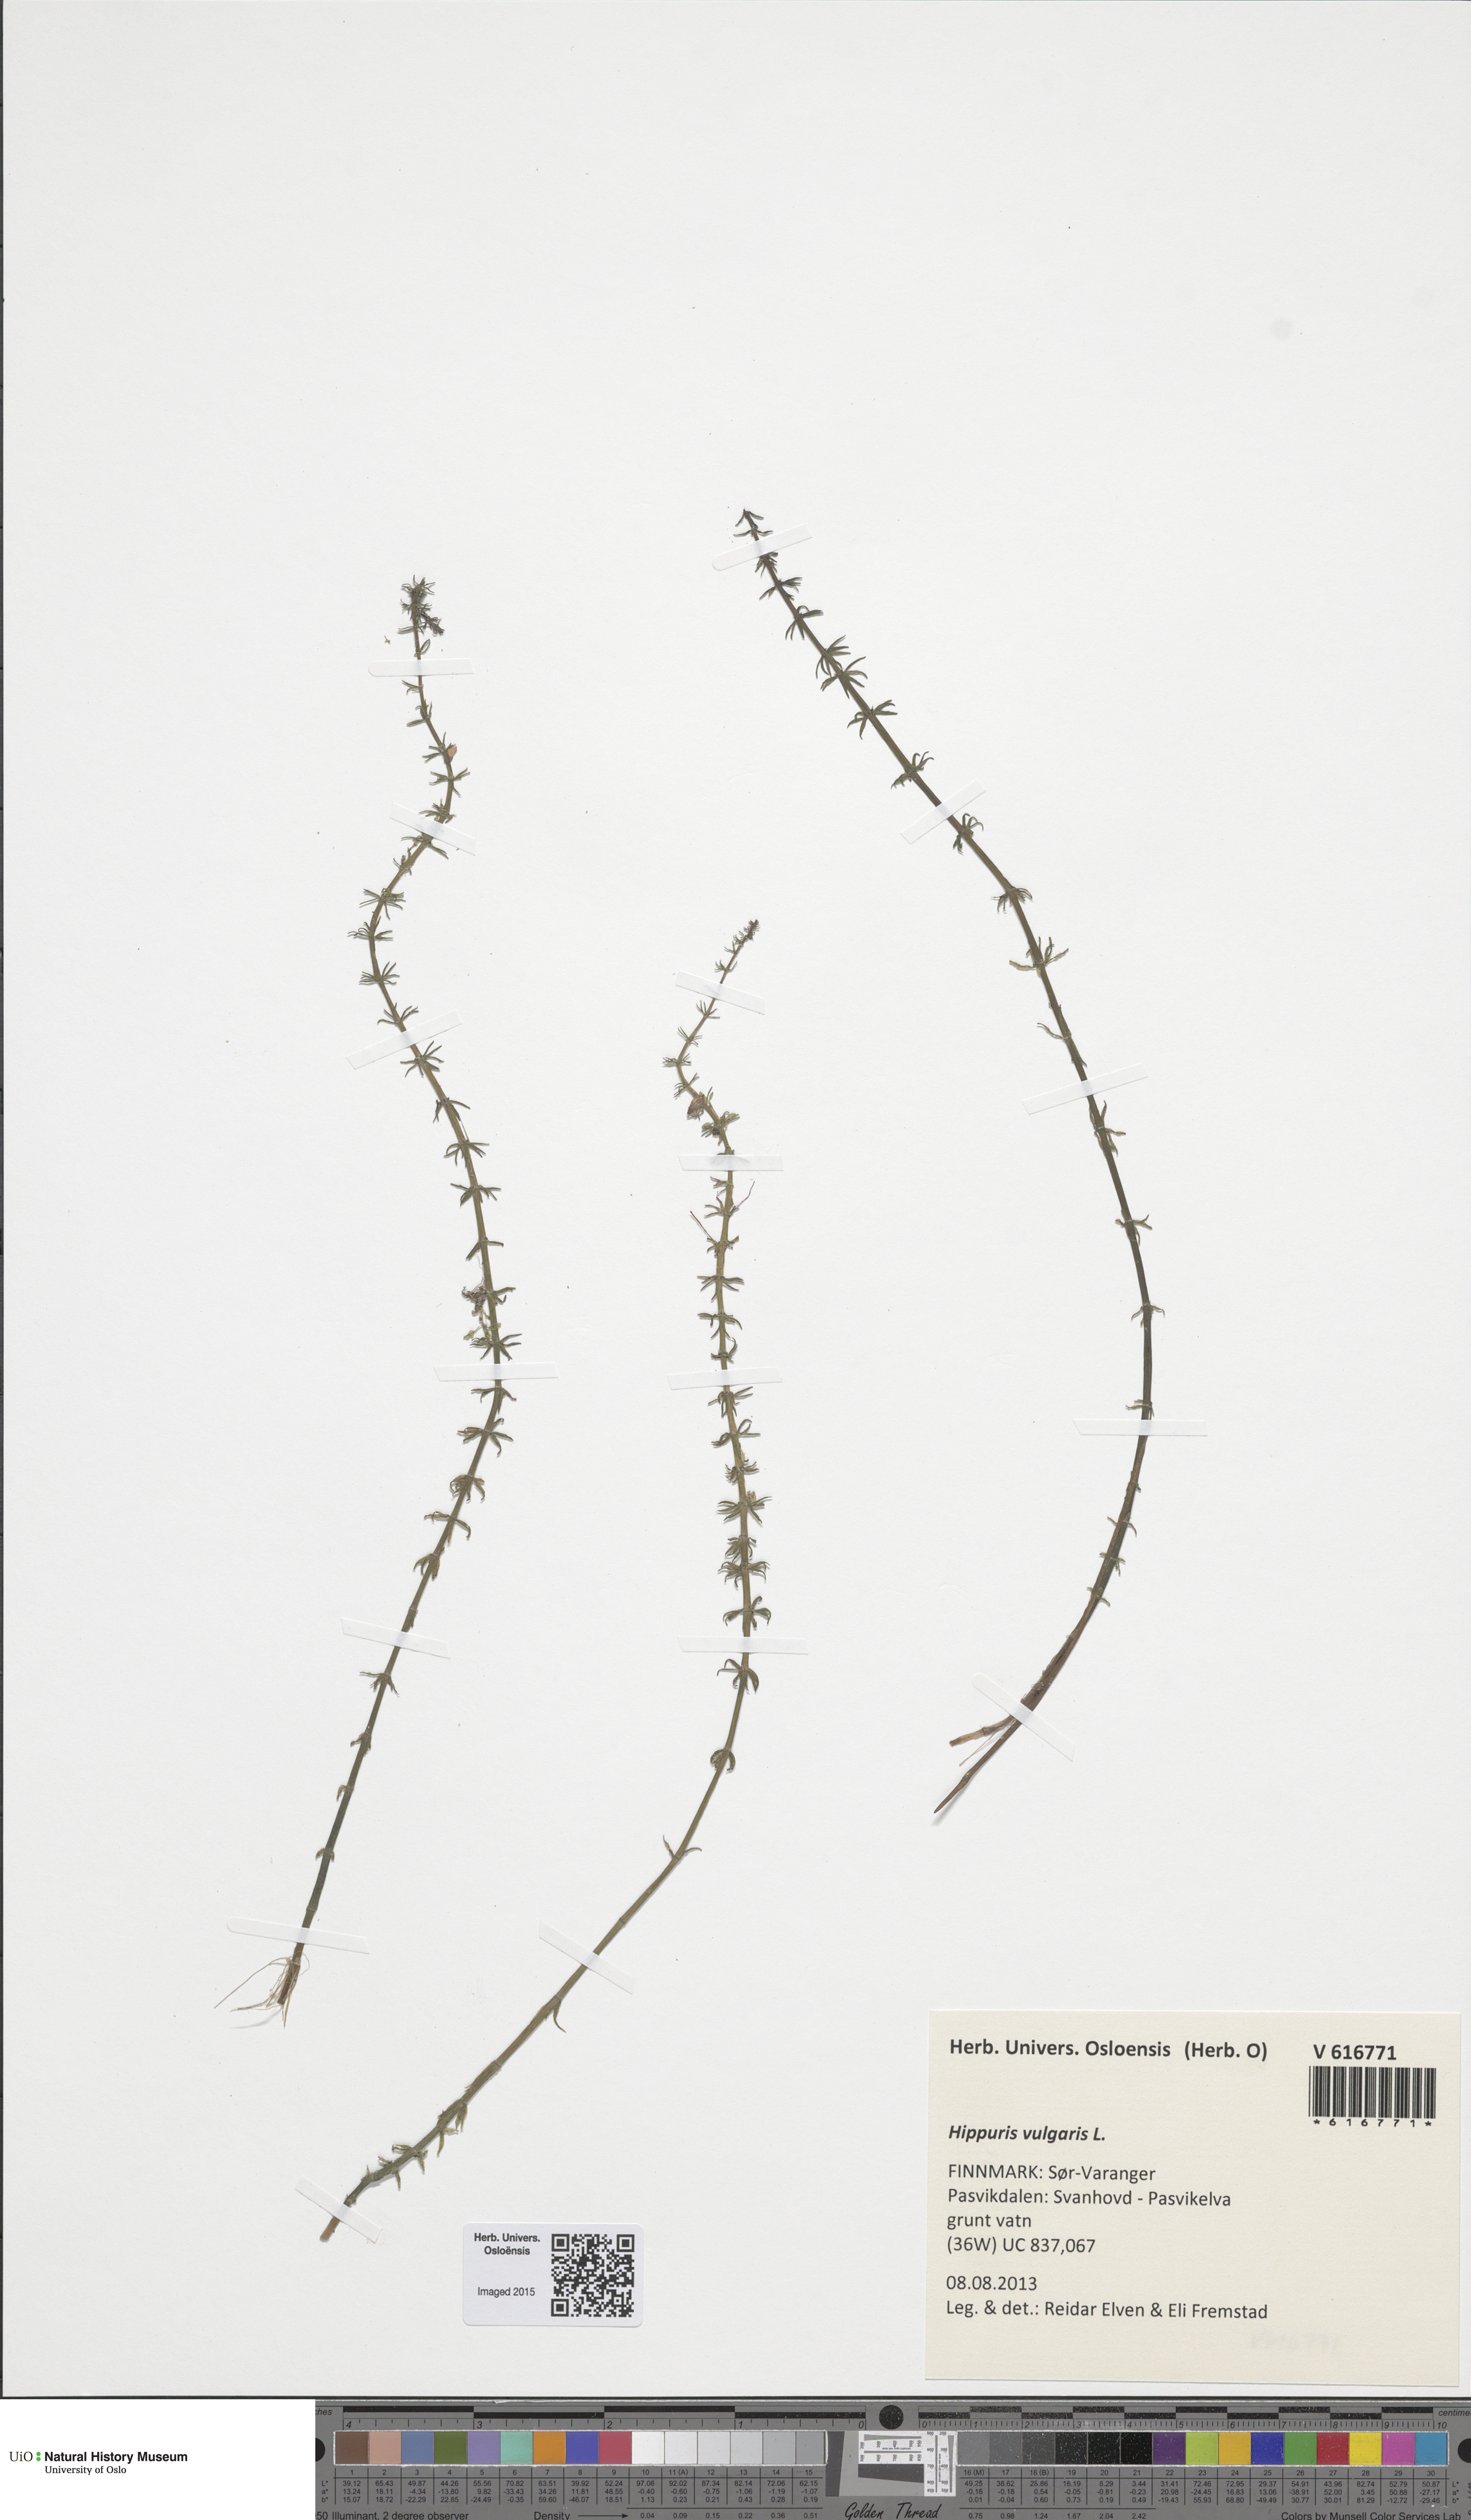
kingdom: Plantae
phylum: Tracheophyta
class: Magnoliopsida
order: Lamiales
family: Plantaginaceae
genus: Hippuris
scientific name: Hippuris vulgaris
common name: Mare's-tail
